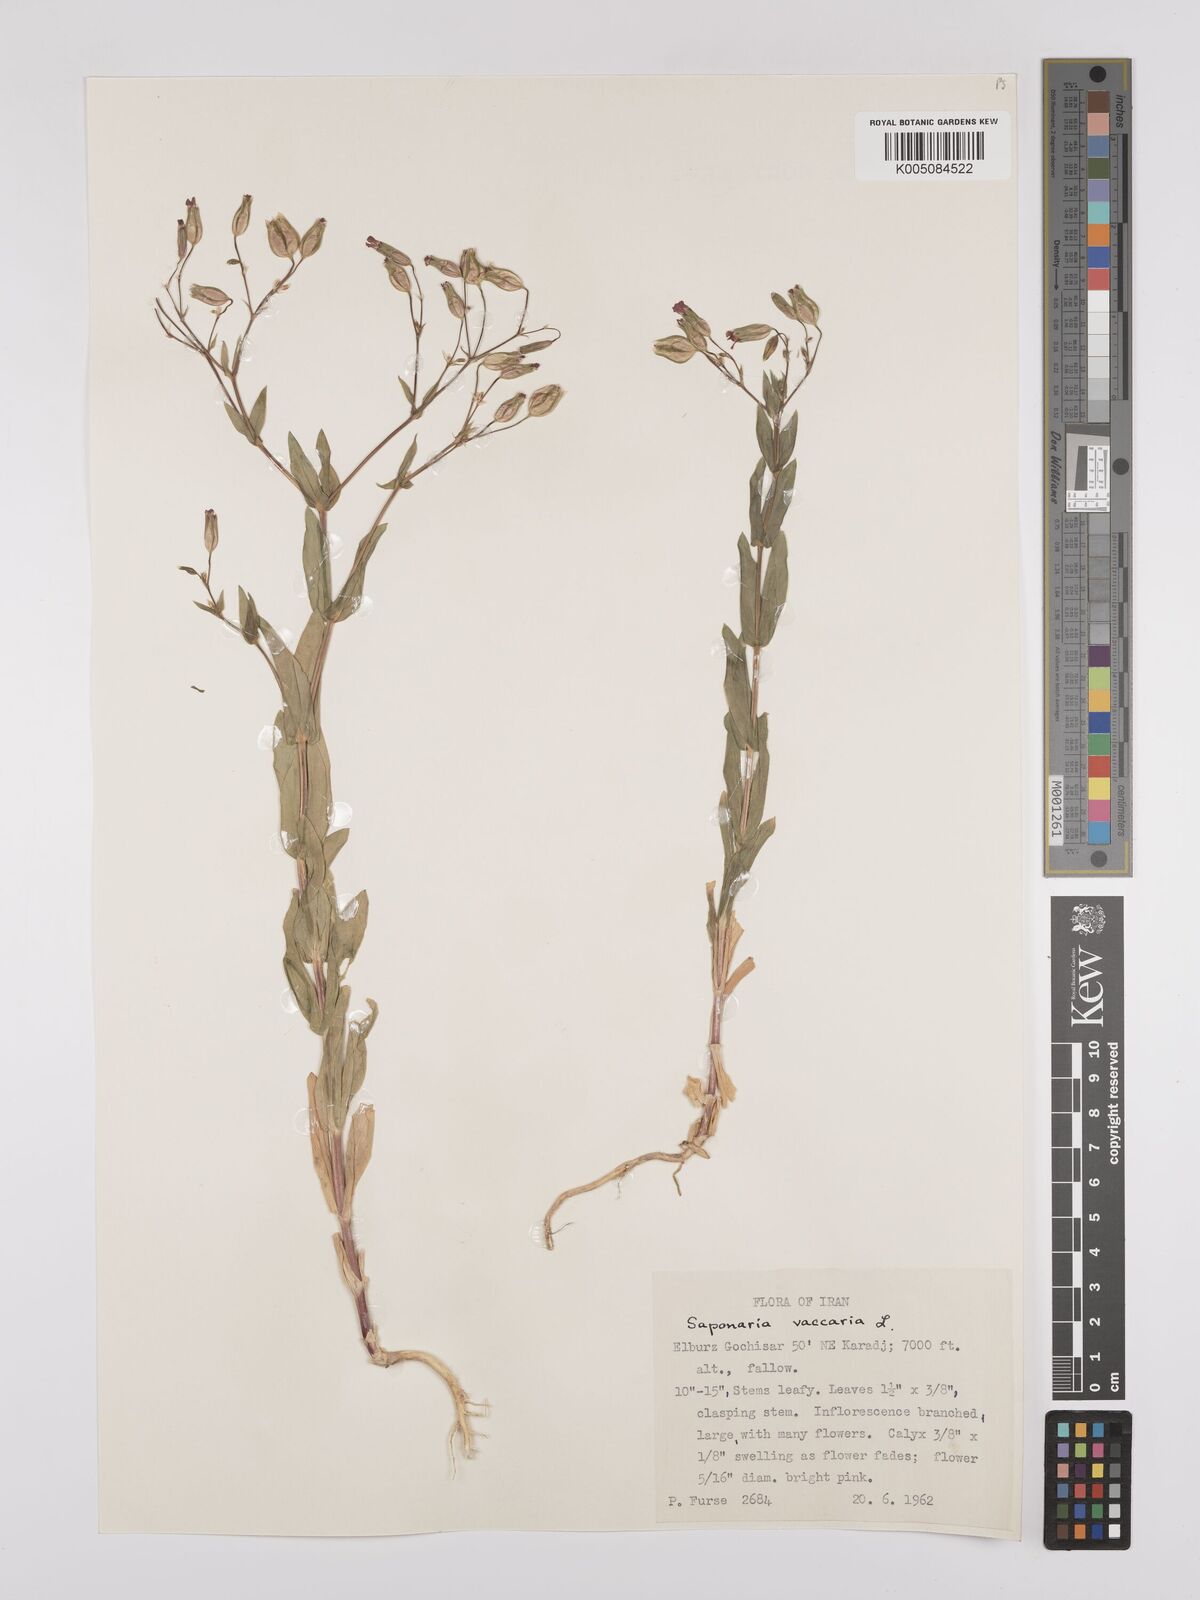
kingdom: Plantae
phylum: Tracheophyta
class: Magnoliopsida
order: Caryophyllales
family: Caryophyllaceae
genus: Gypsophila
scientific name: Gypsophila vaccaria
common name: Cow soapwort
